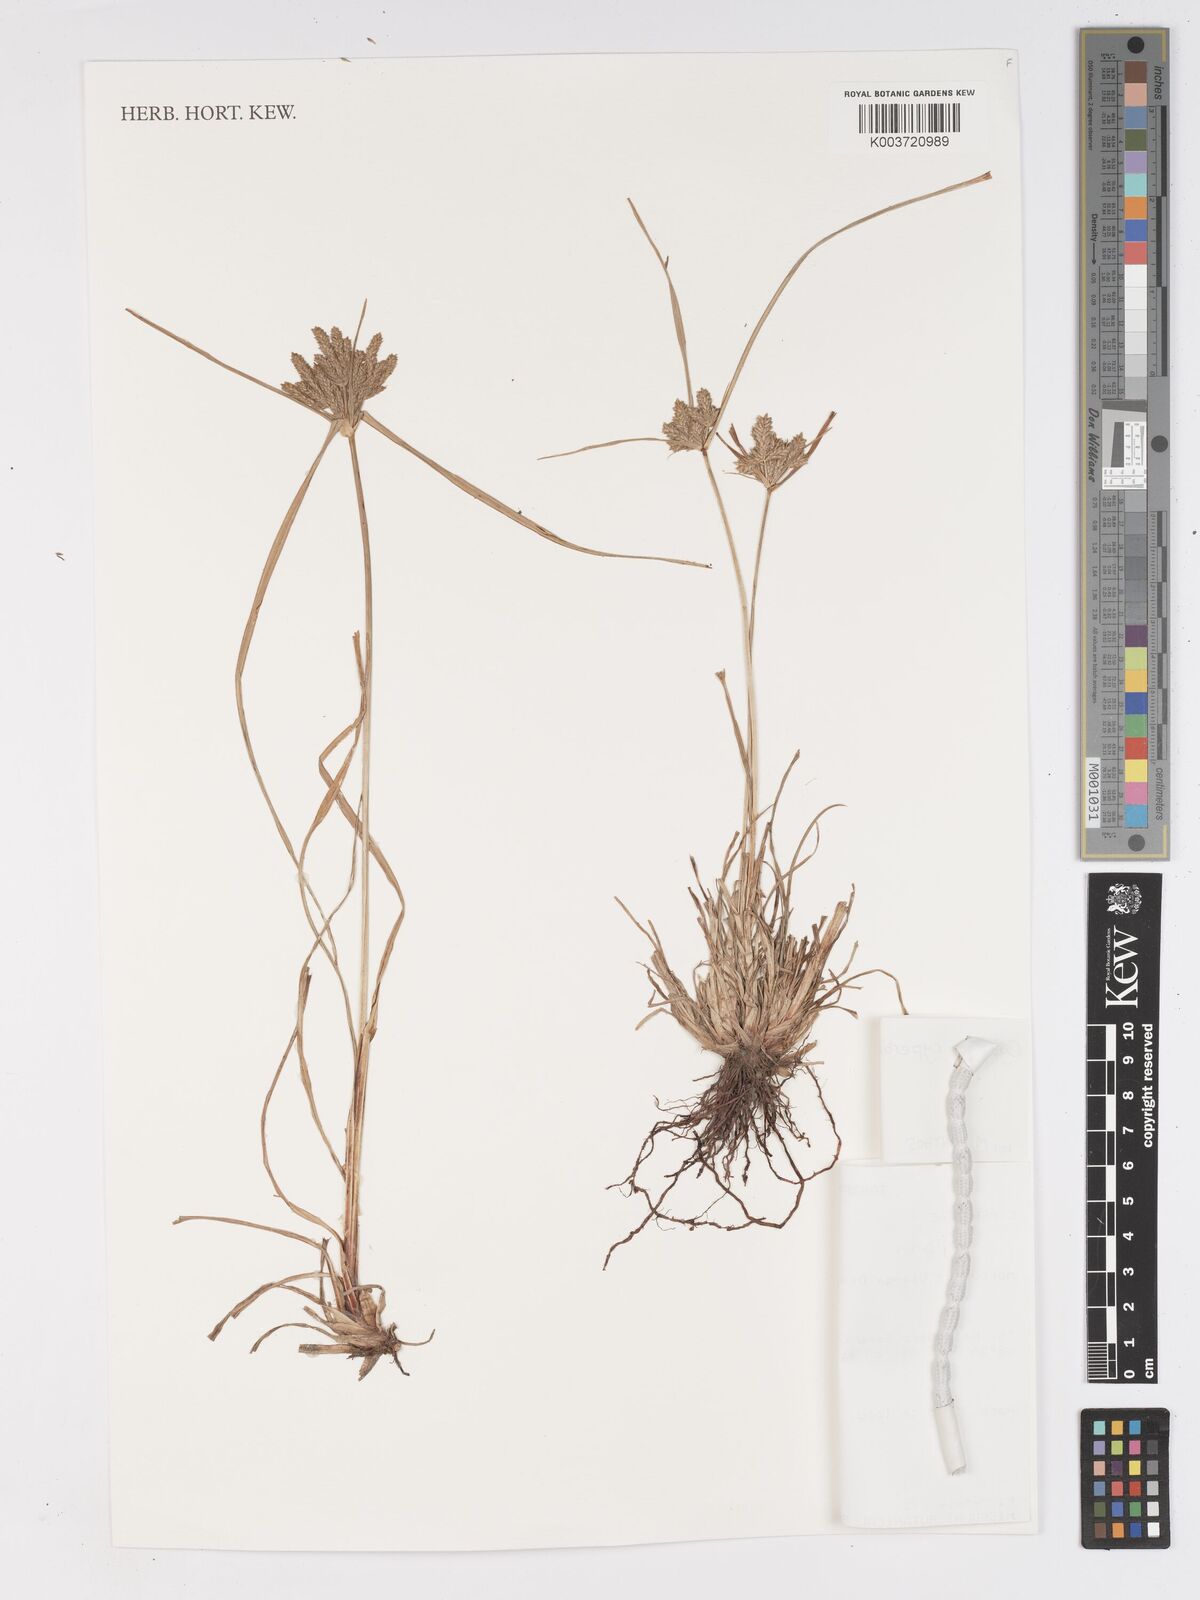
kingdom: Plantae
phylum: Tracheophyta
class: Liliopsida
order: Poales
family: Cyperaceae
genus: Cyperus
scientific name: Cyperus
